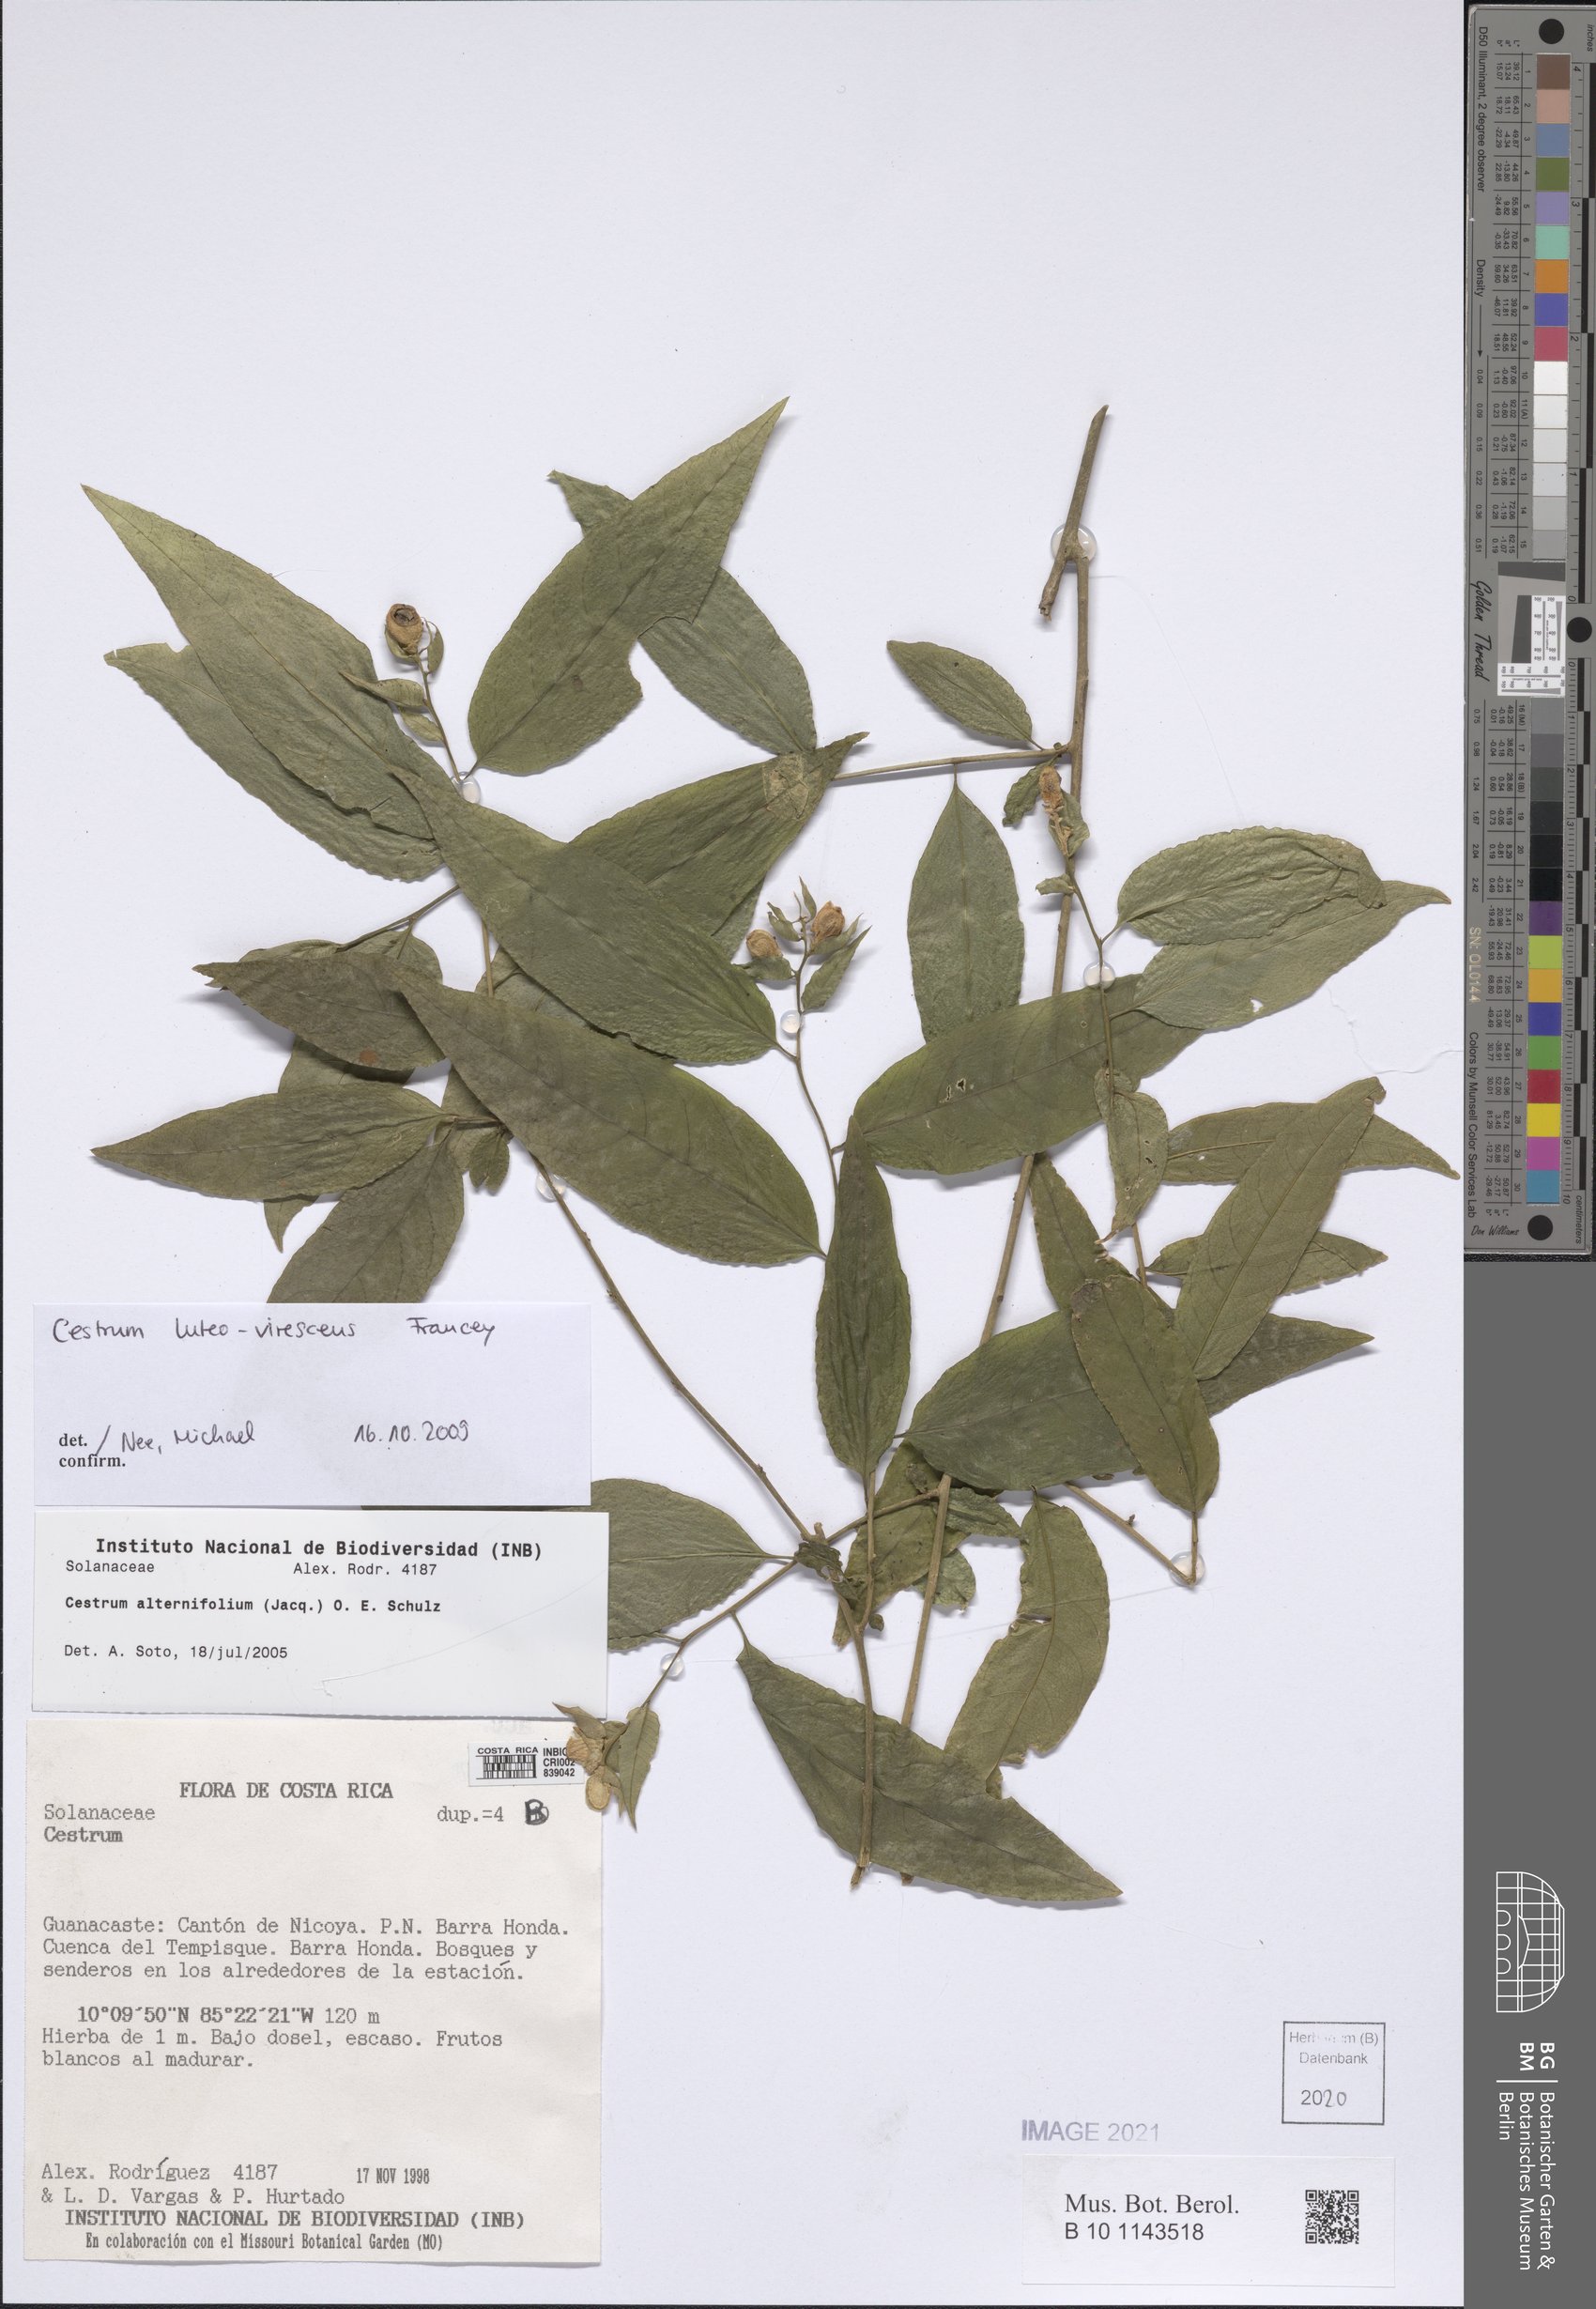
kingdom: Plantae
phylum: Tracheophyta
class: Magnoliopsida
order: Solanales
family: Solanaceae
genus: Cestrum
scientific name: Cestrum luteovirescens
